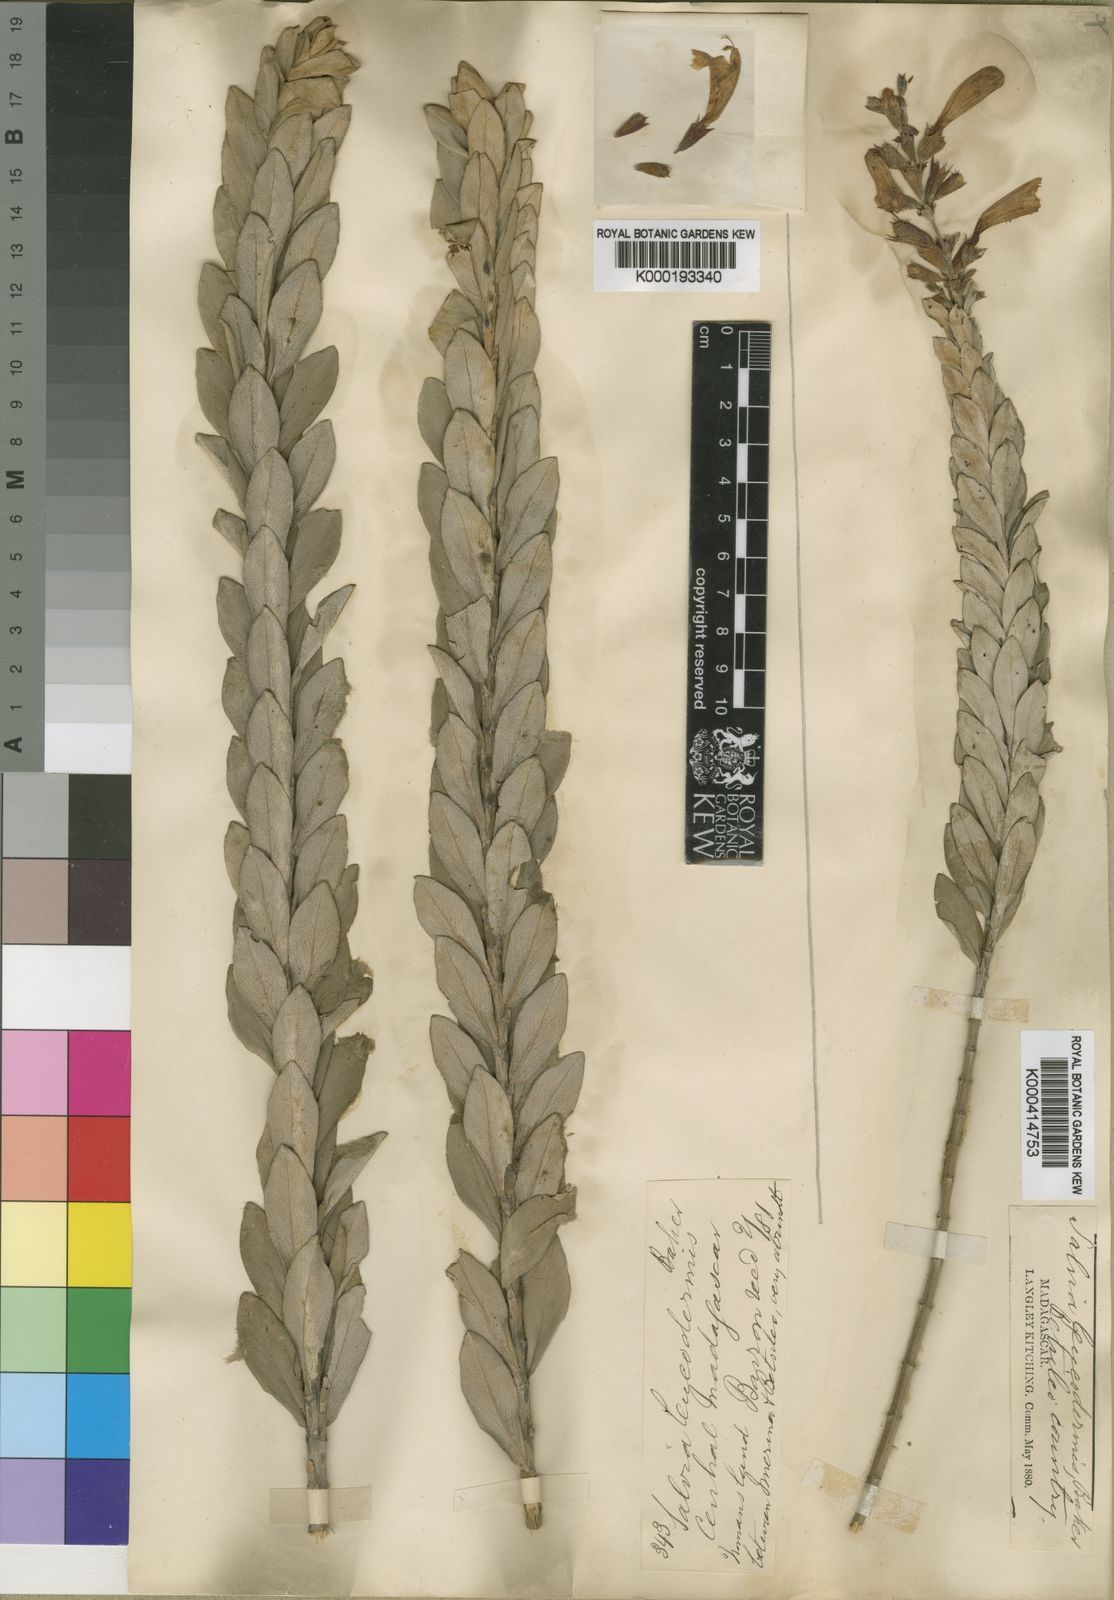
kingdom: Plantae
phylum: Tracheophyta
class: Magnoliopsida
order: Lamiales
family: Lamiaceae
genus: Salvia
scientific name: Salvia leucodermis
